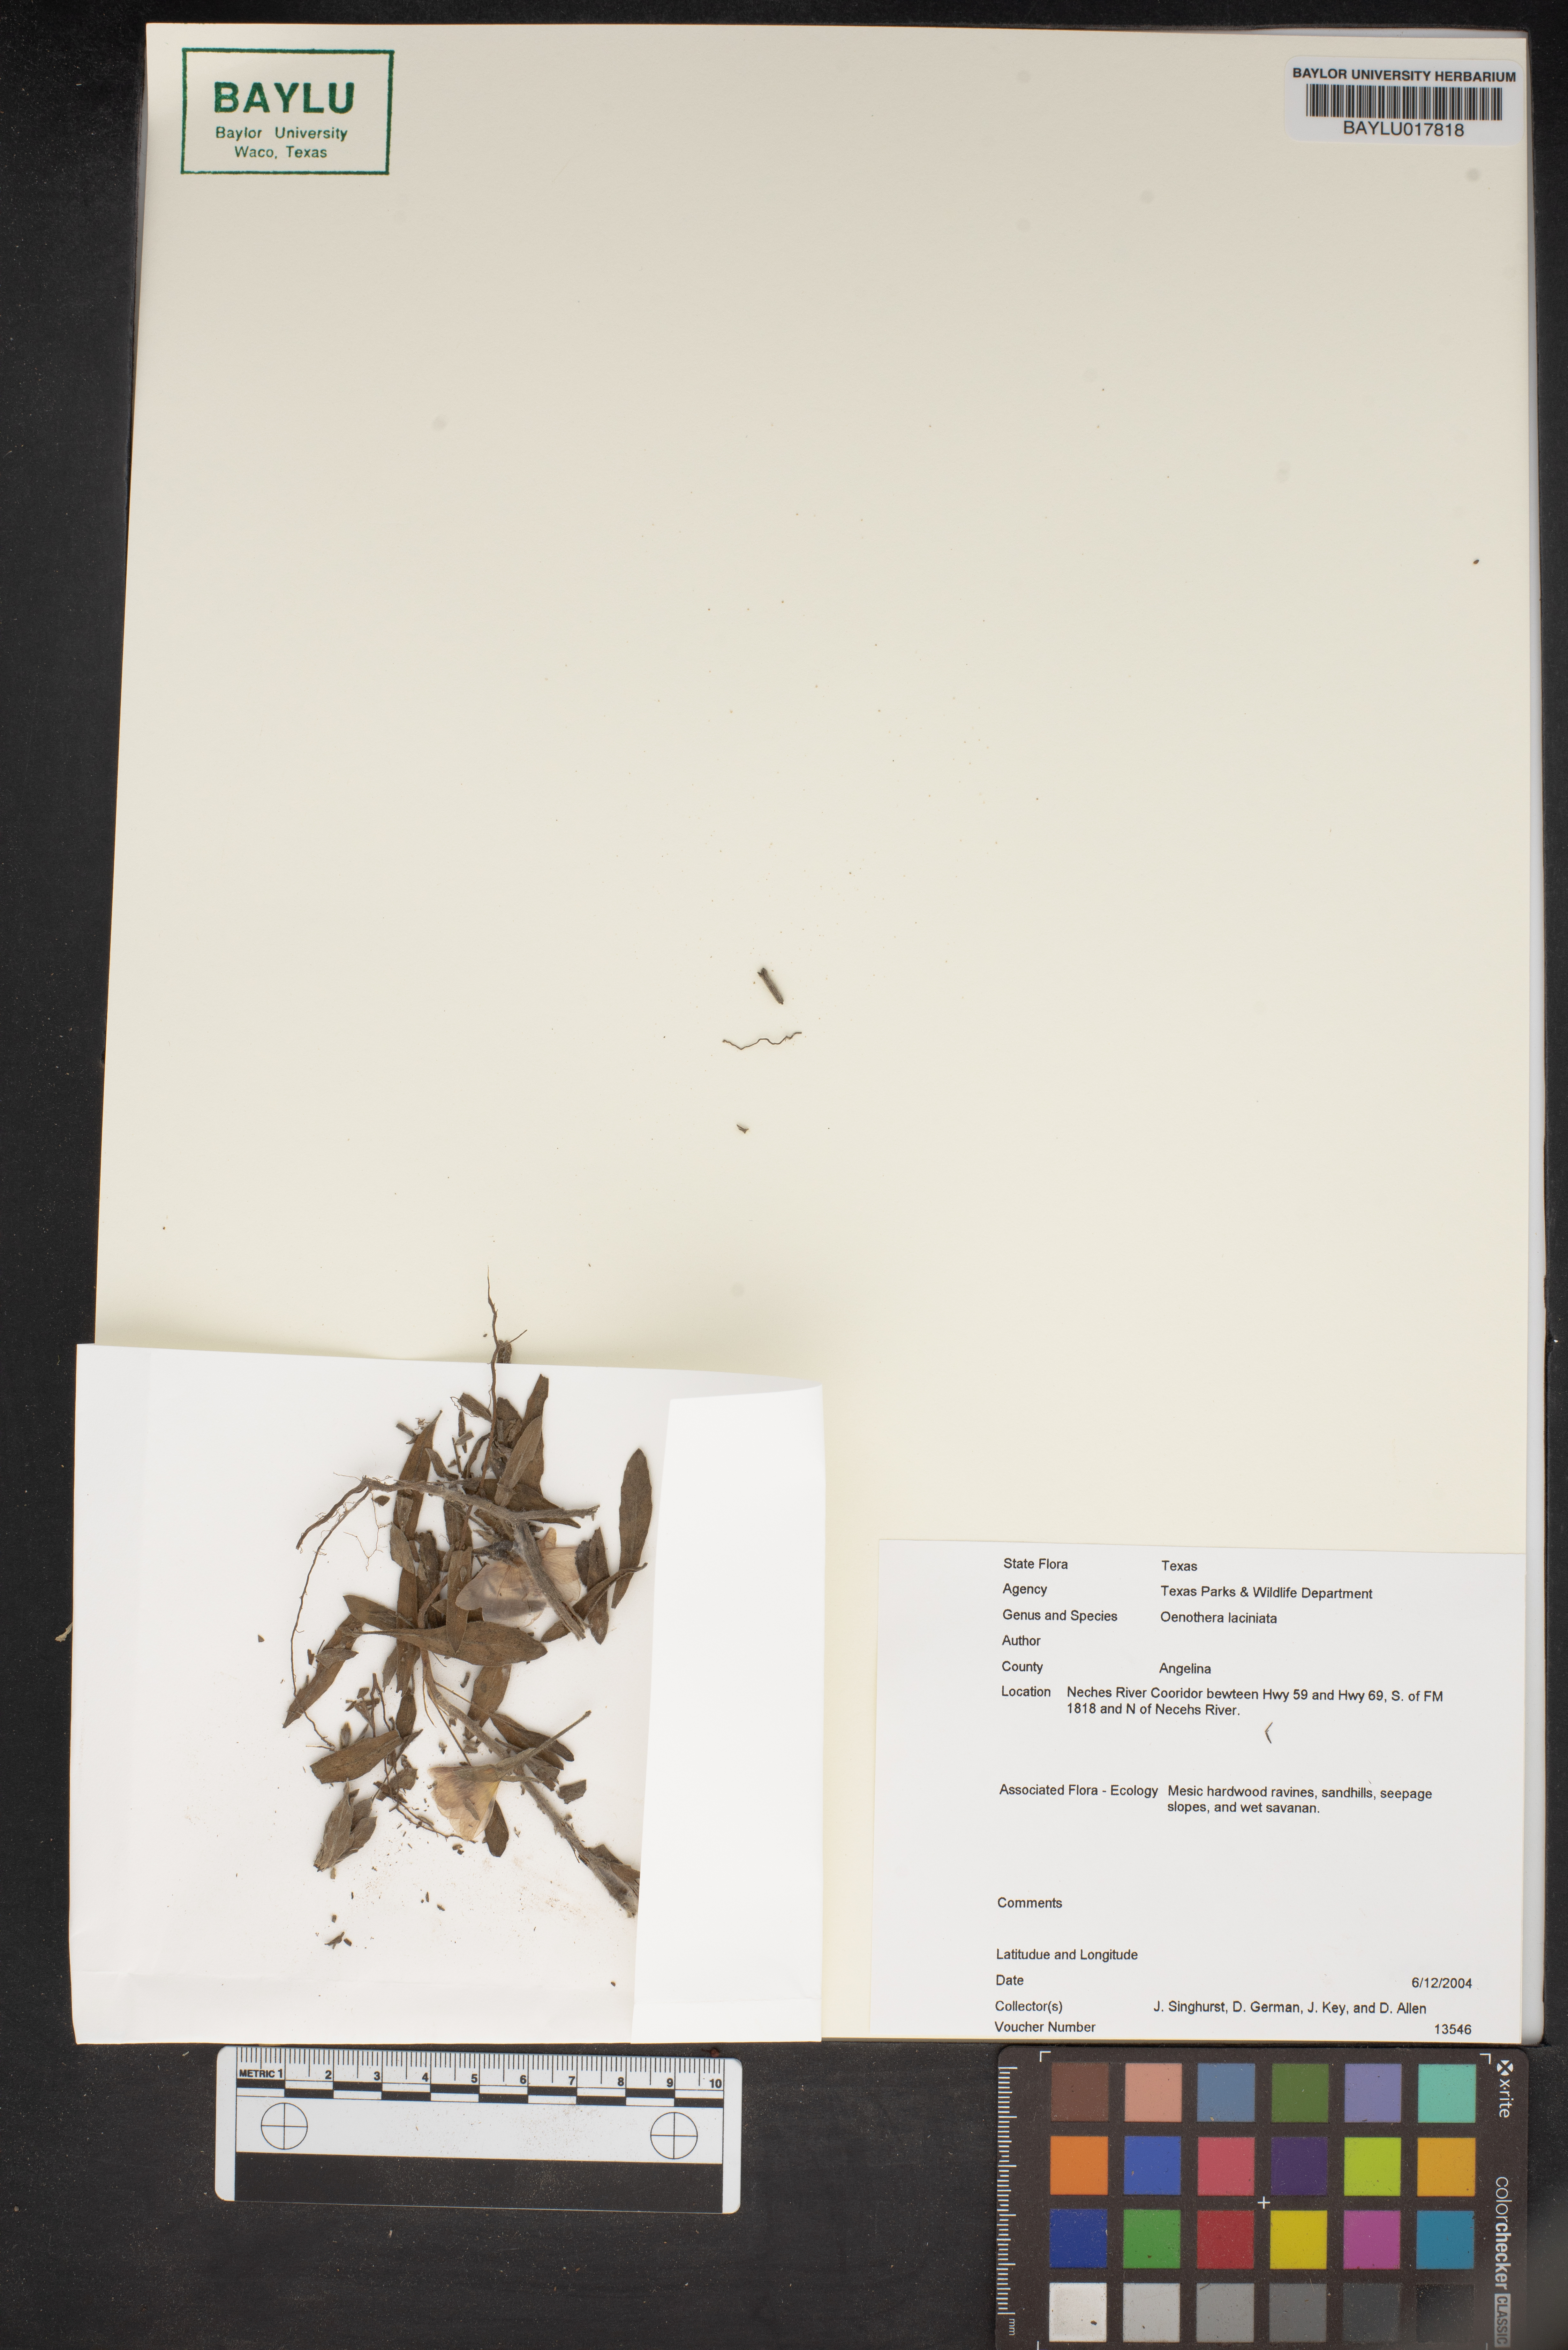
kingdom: Plantae
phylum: Tracheophyta
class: Magnoliopsida
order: Myrtales
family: Onagraceae
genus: Oenothera
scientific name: Oenothera laciniata
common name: Cut-leaved evening-primrose
